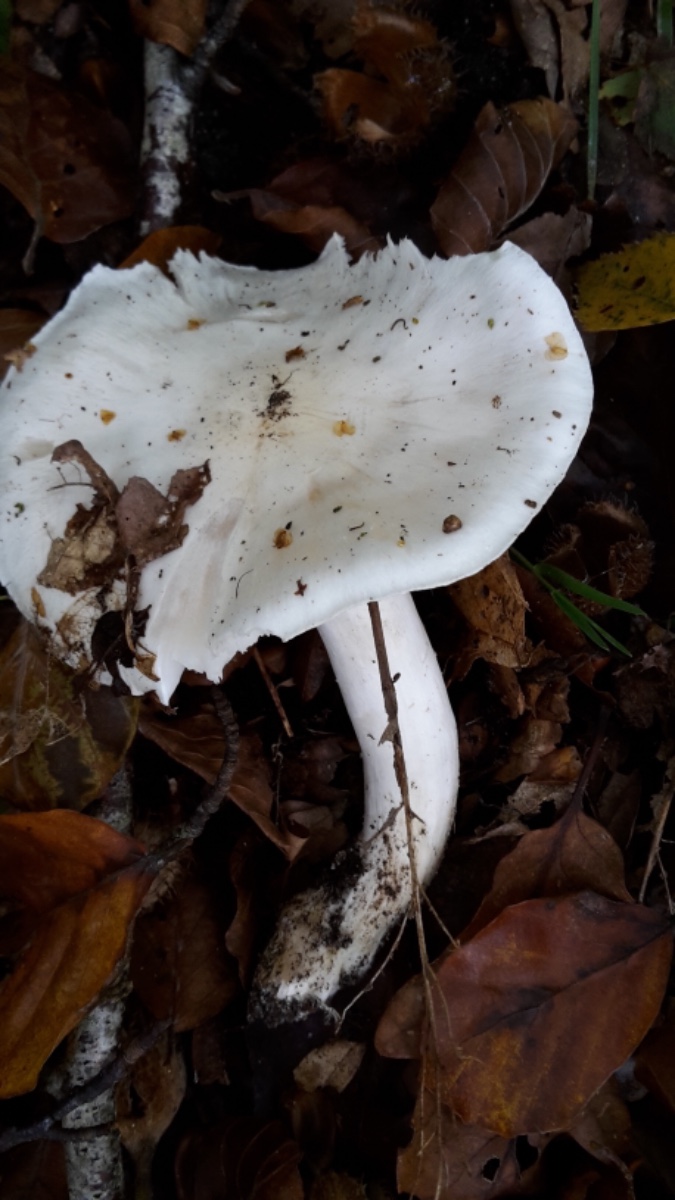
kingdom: Fungi
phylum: Basidiomycota
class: Agaricomycetes
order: Agaricales
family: Tricholomataceae
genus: Tricholoma
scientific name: Tricholoma columbetta
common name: silke-ridderhat
